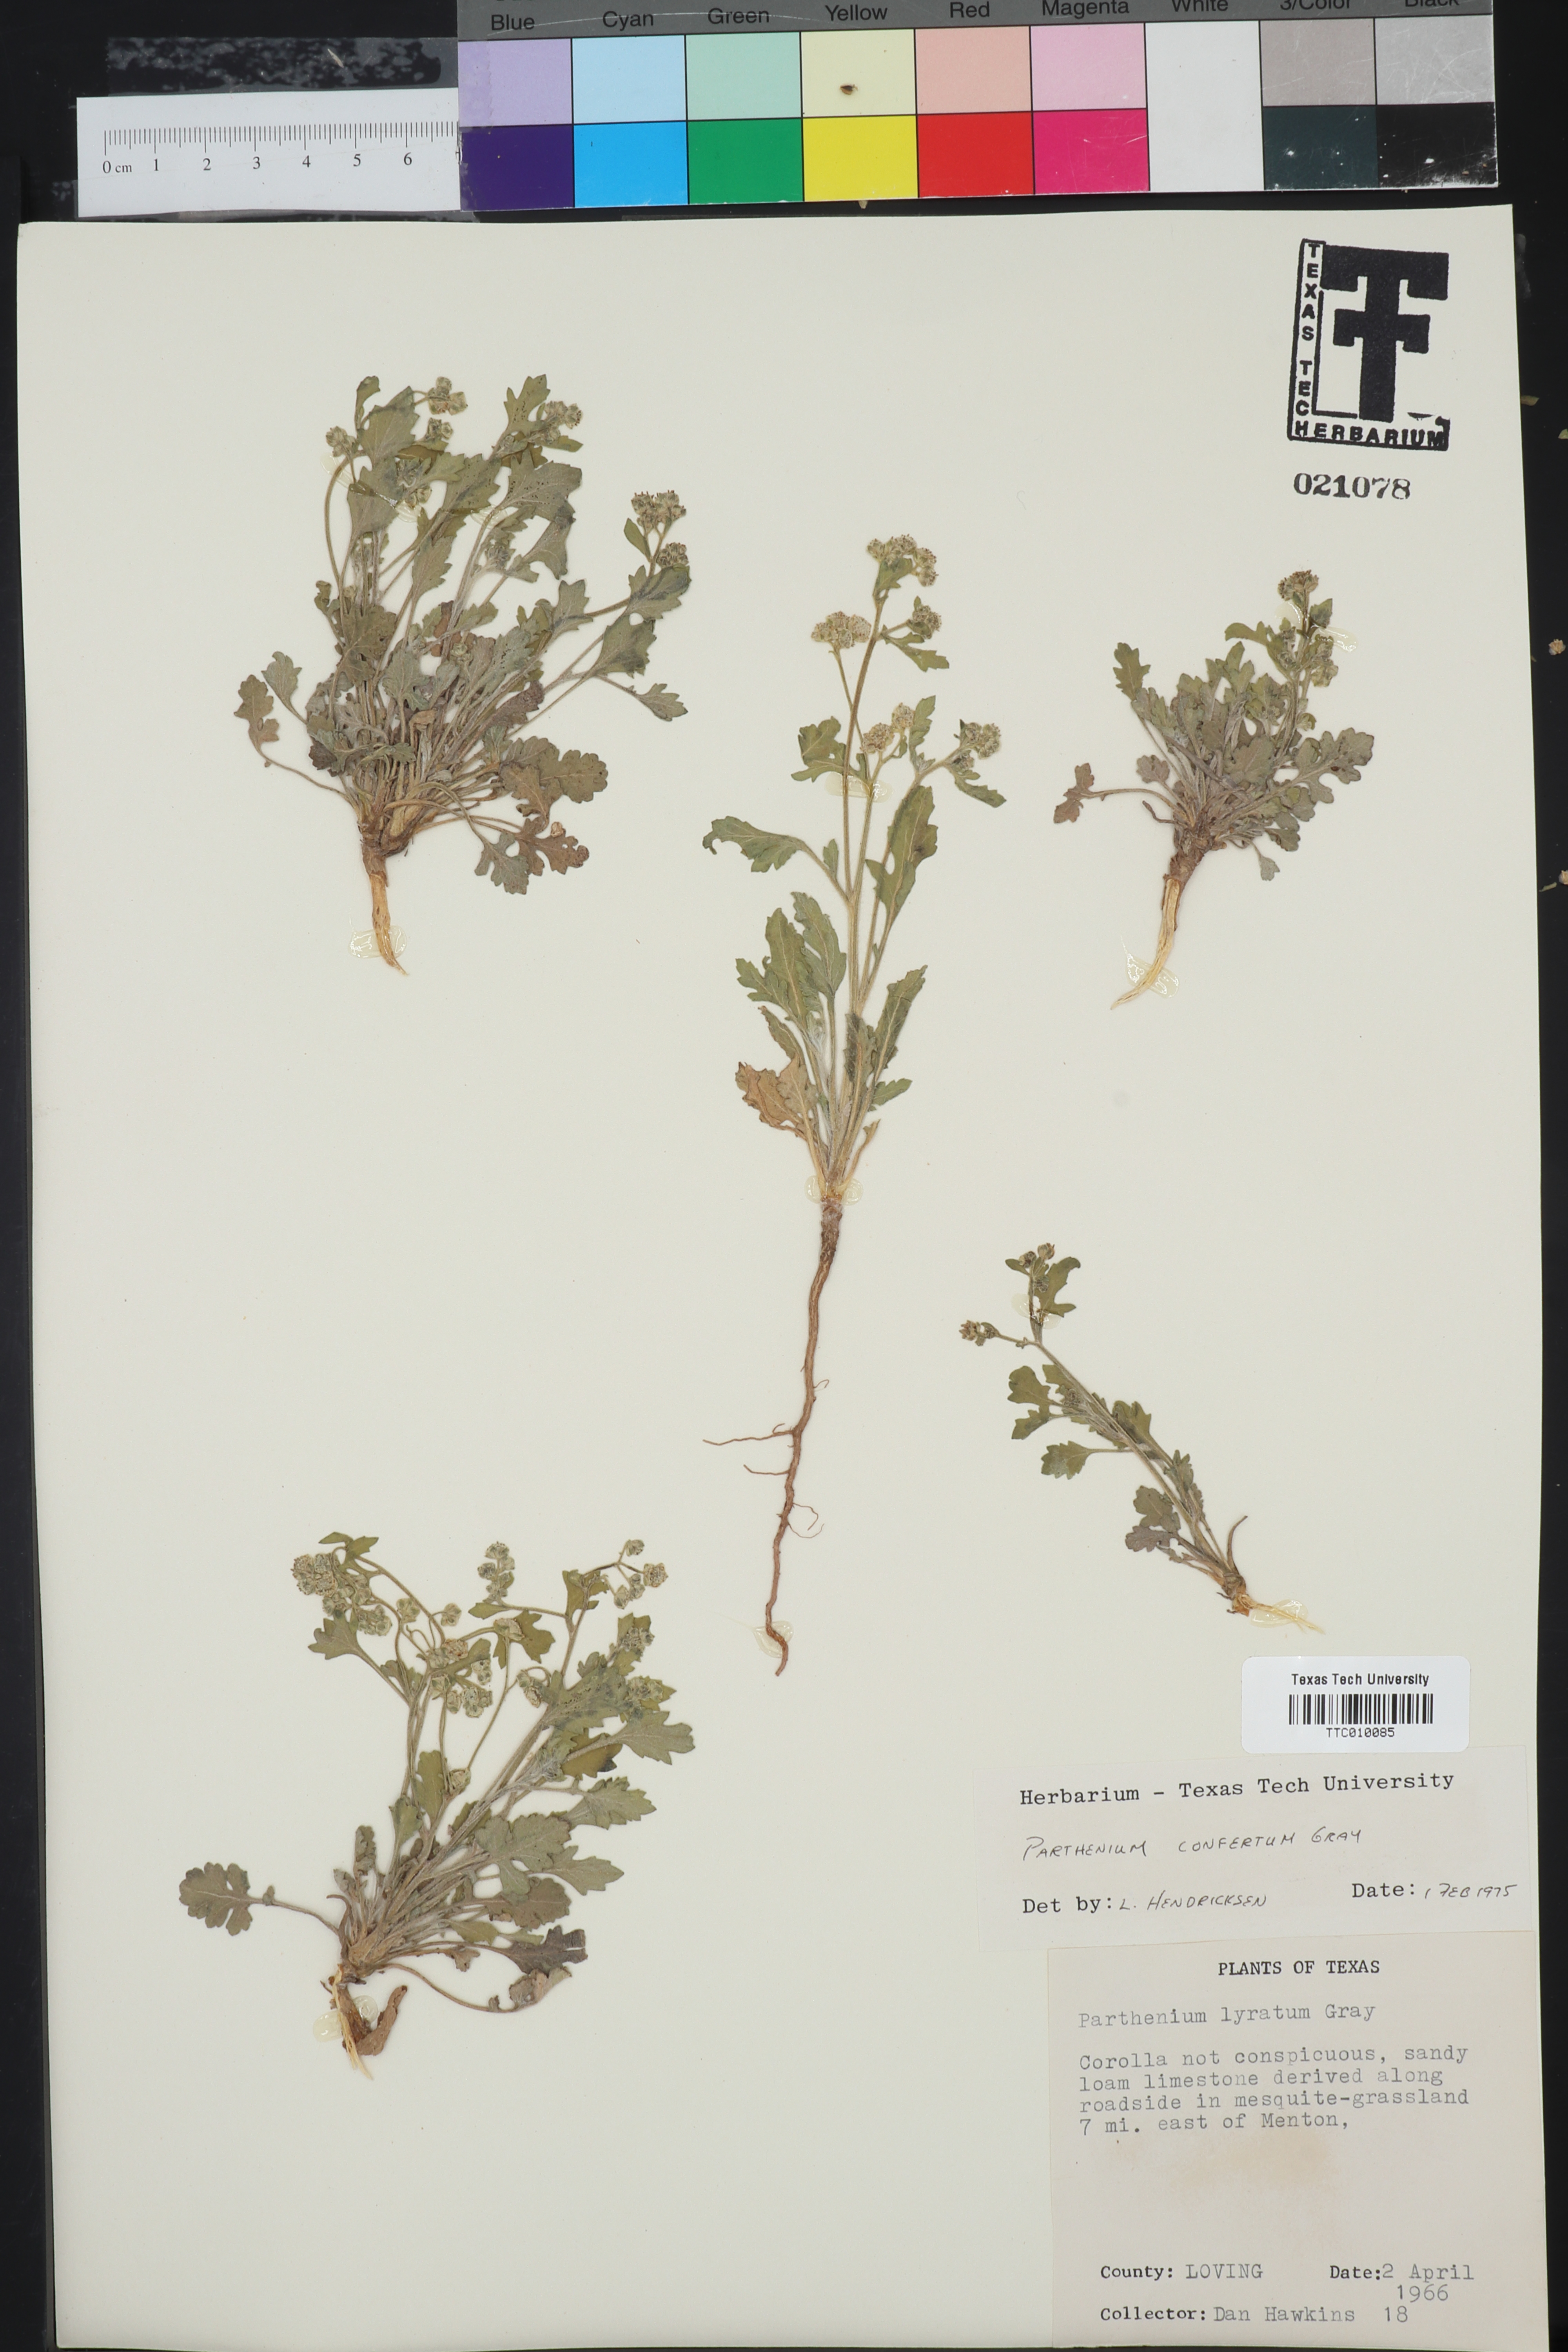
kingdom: Plantae
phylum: Tracheophyta
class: Magnoliopsida
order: Asterales
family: Asteraceae
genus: Parthenium
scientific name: Parthenium confertum
